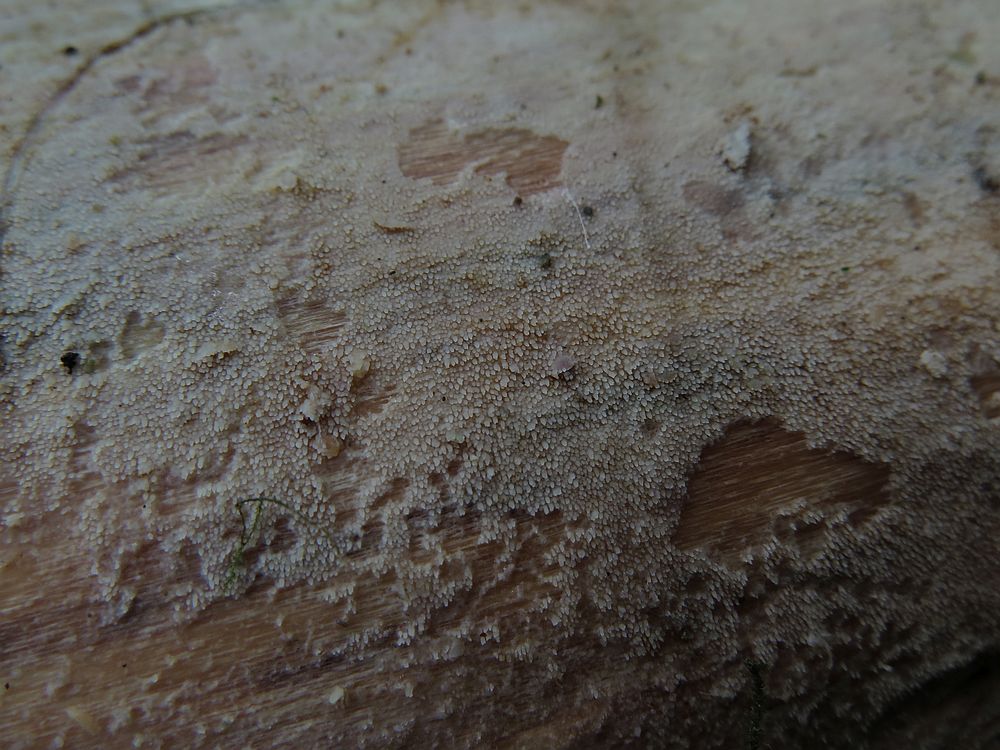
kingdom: Fungi
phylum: Basidiomycota
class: Agaricomycetes
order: Hymenochaetales
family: Rickenellaceae
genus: Resinicium
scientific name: Resinicium bicolor
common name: almindelig vokstand
